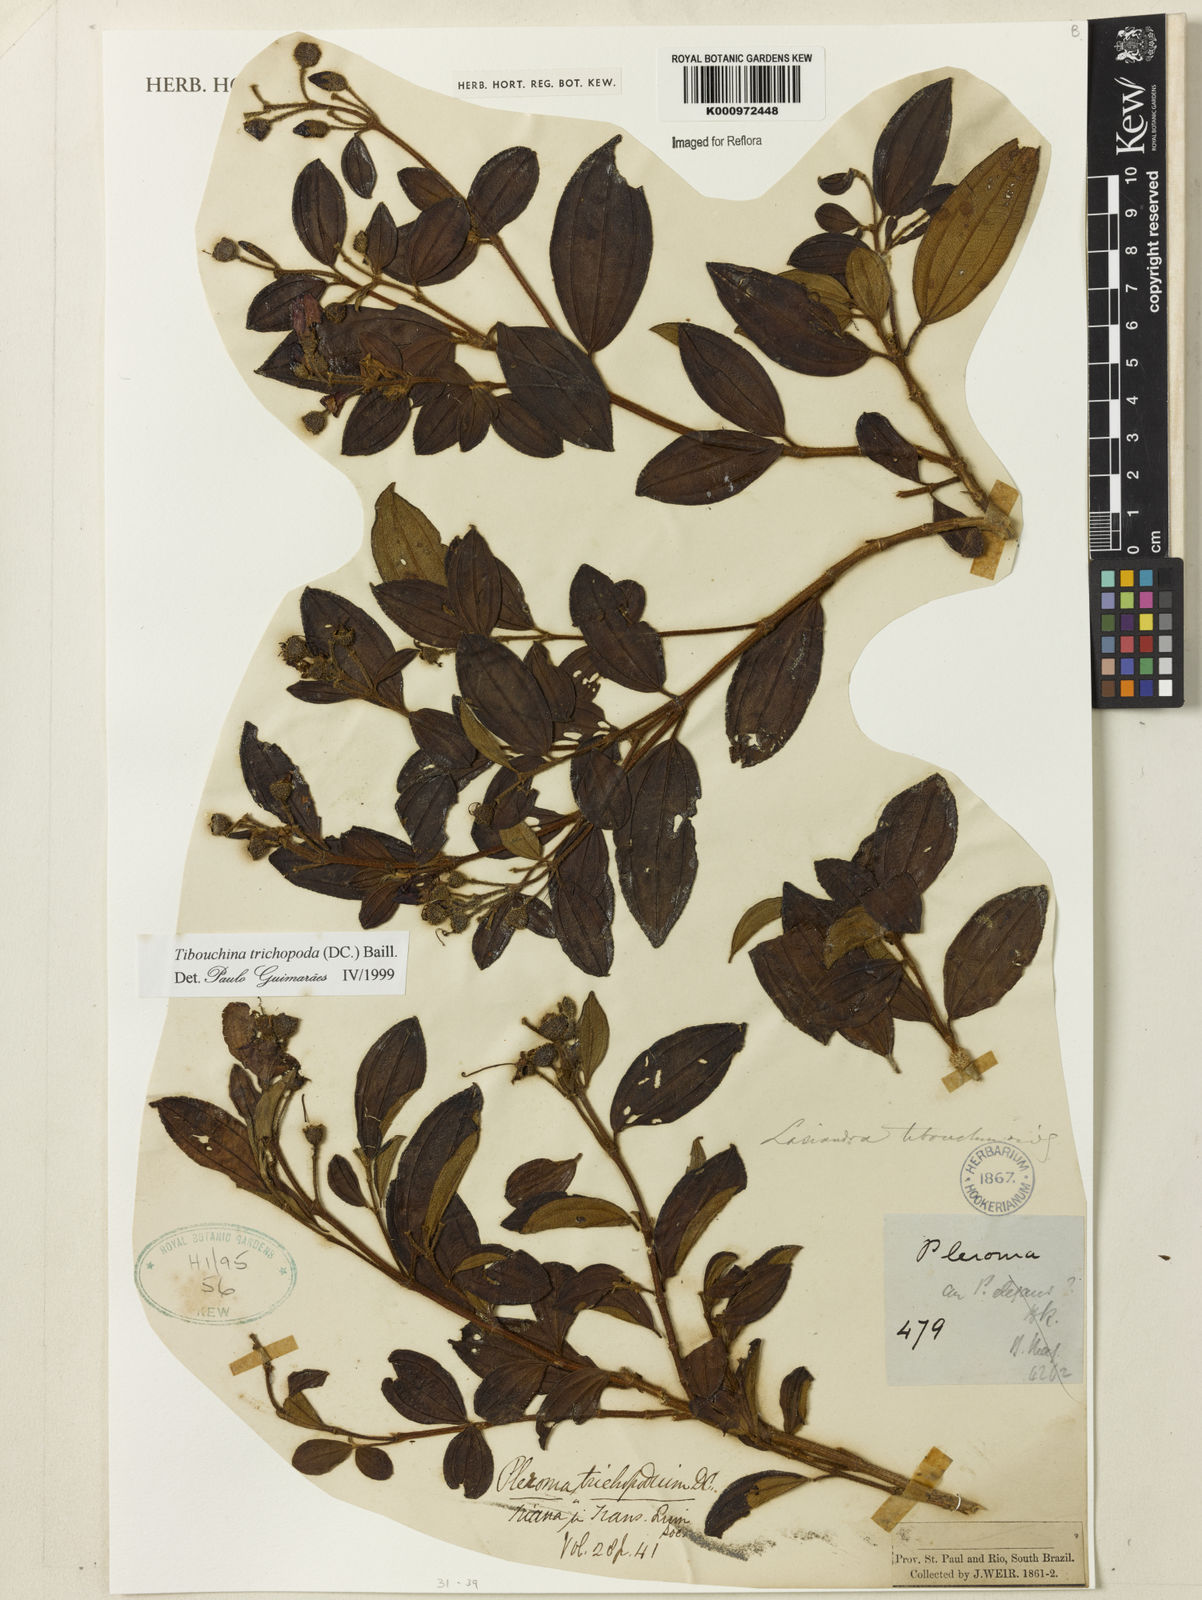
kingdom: Plantae
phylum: Tracheophyta
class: Magnoliopsida
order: Myrtales
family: Melastomataceae
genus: Pleroma
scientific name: Pleroma trichopodum
